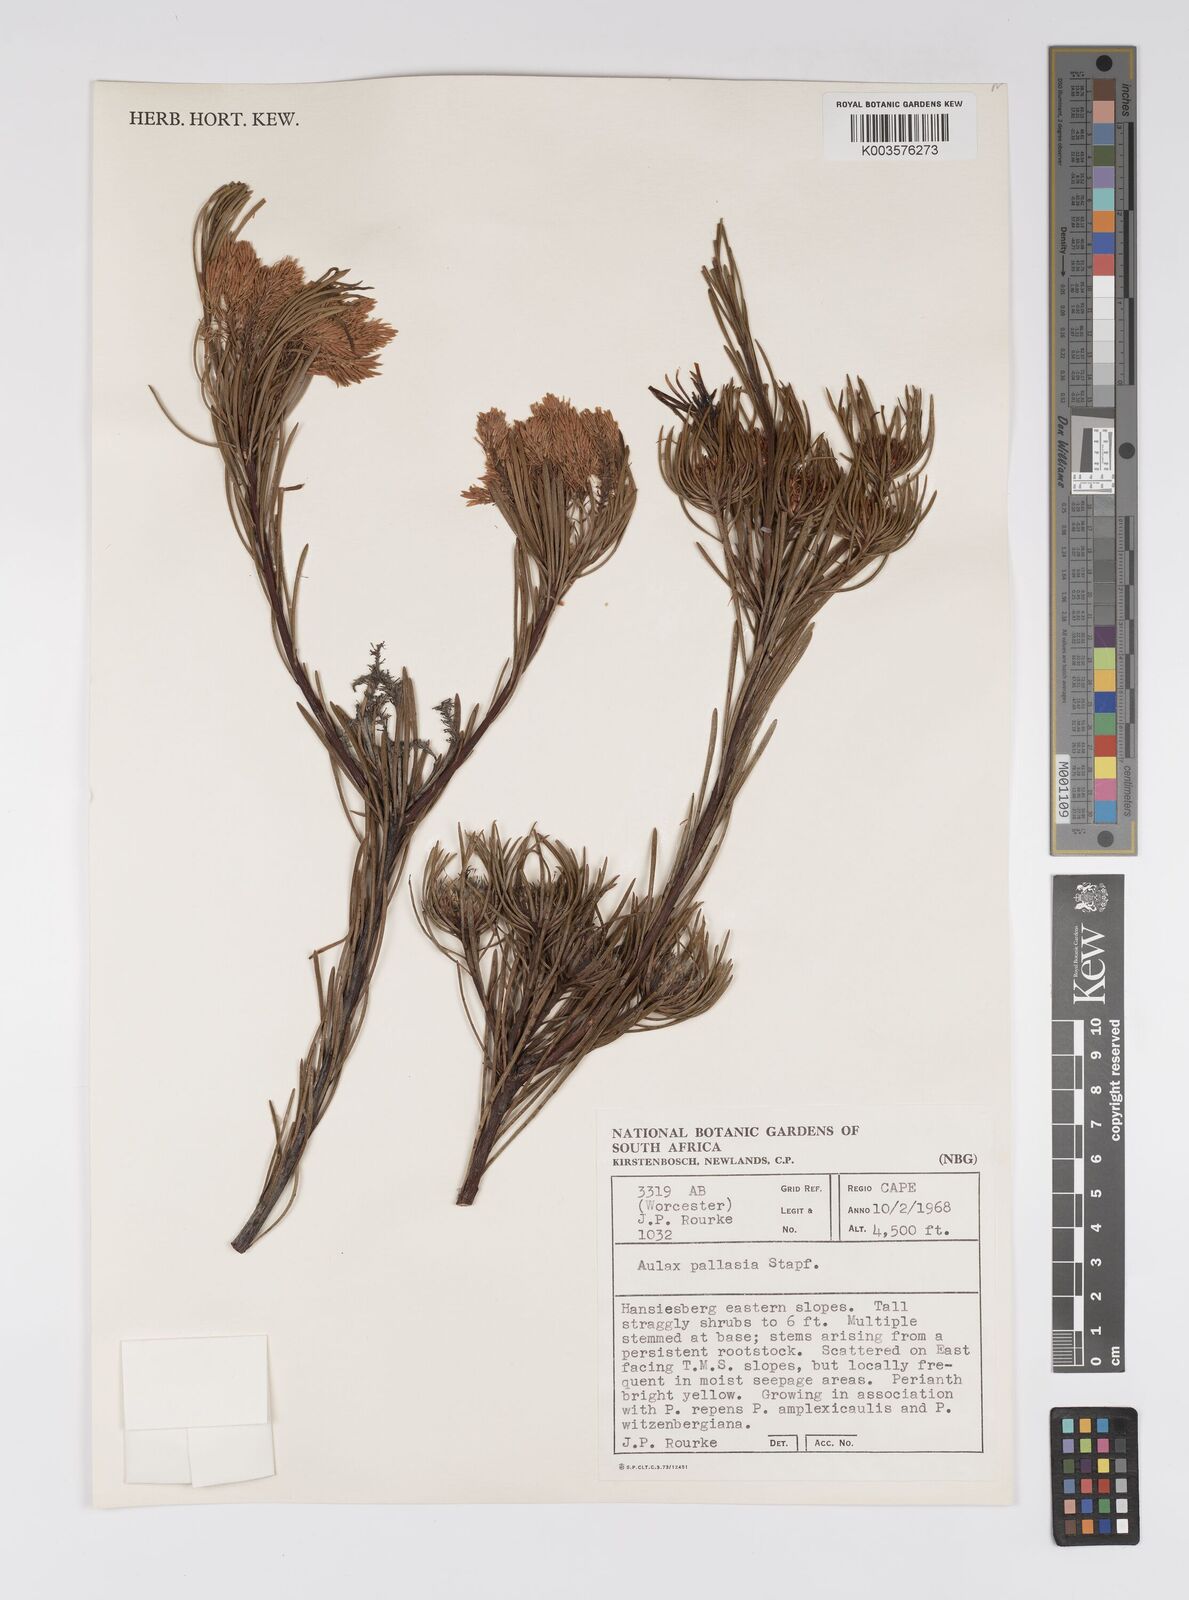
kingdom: Plantae
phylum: Tracheophyta
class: Magnoliopsida
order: Proteales
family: Proteaceae
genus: Aulax
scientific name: Aulax pallasia
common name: Needle-leaf featherbush
